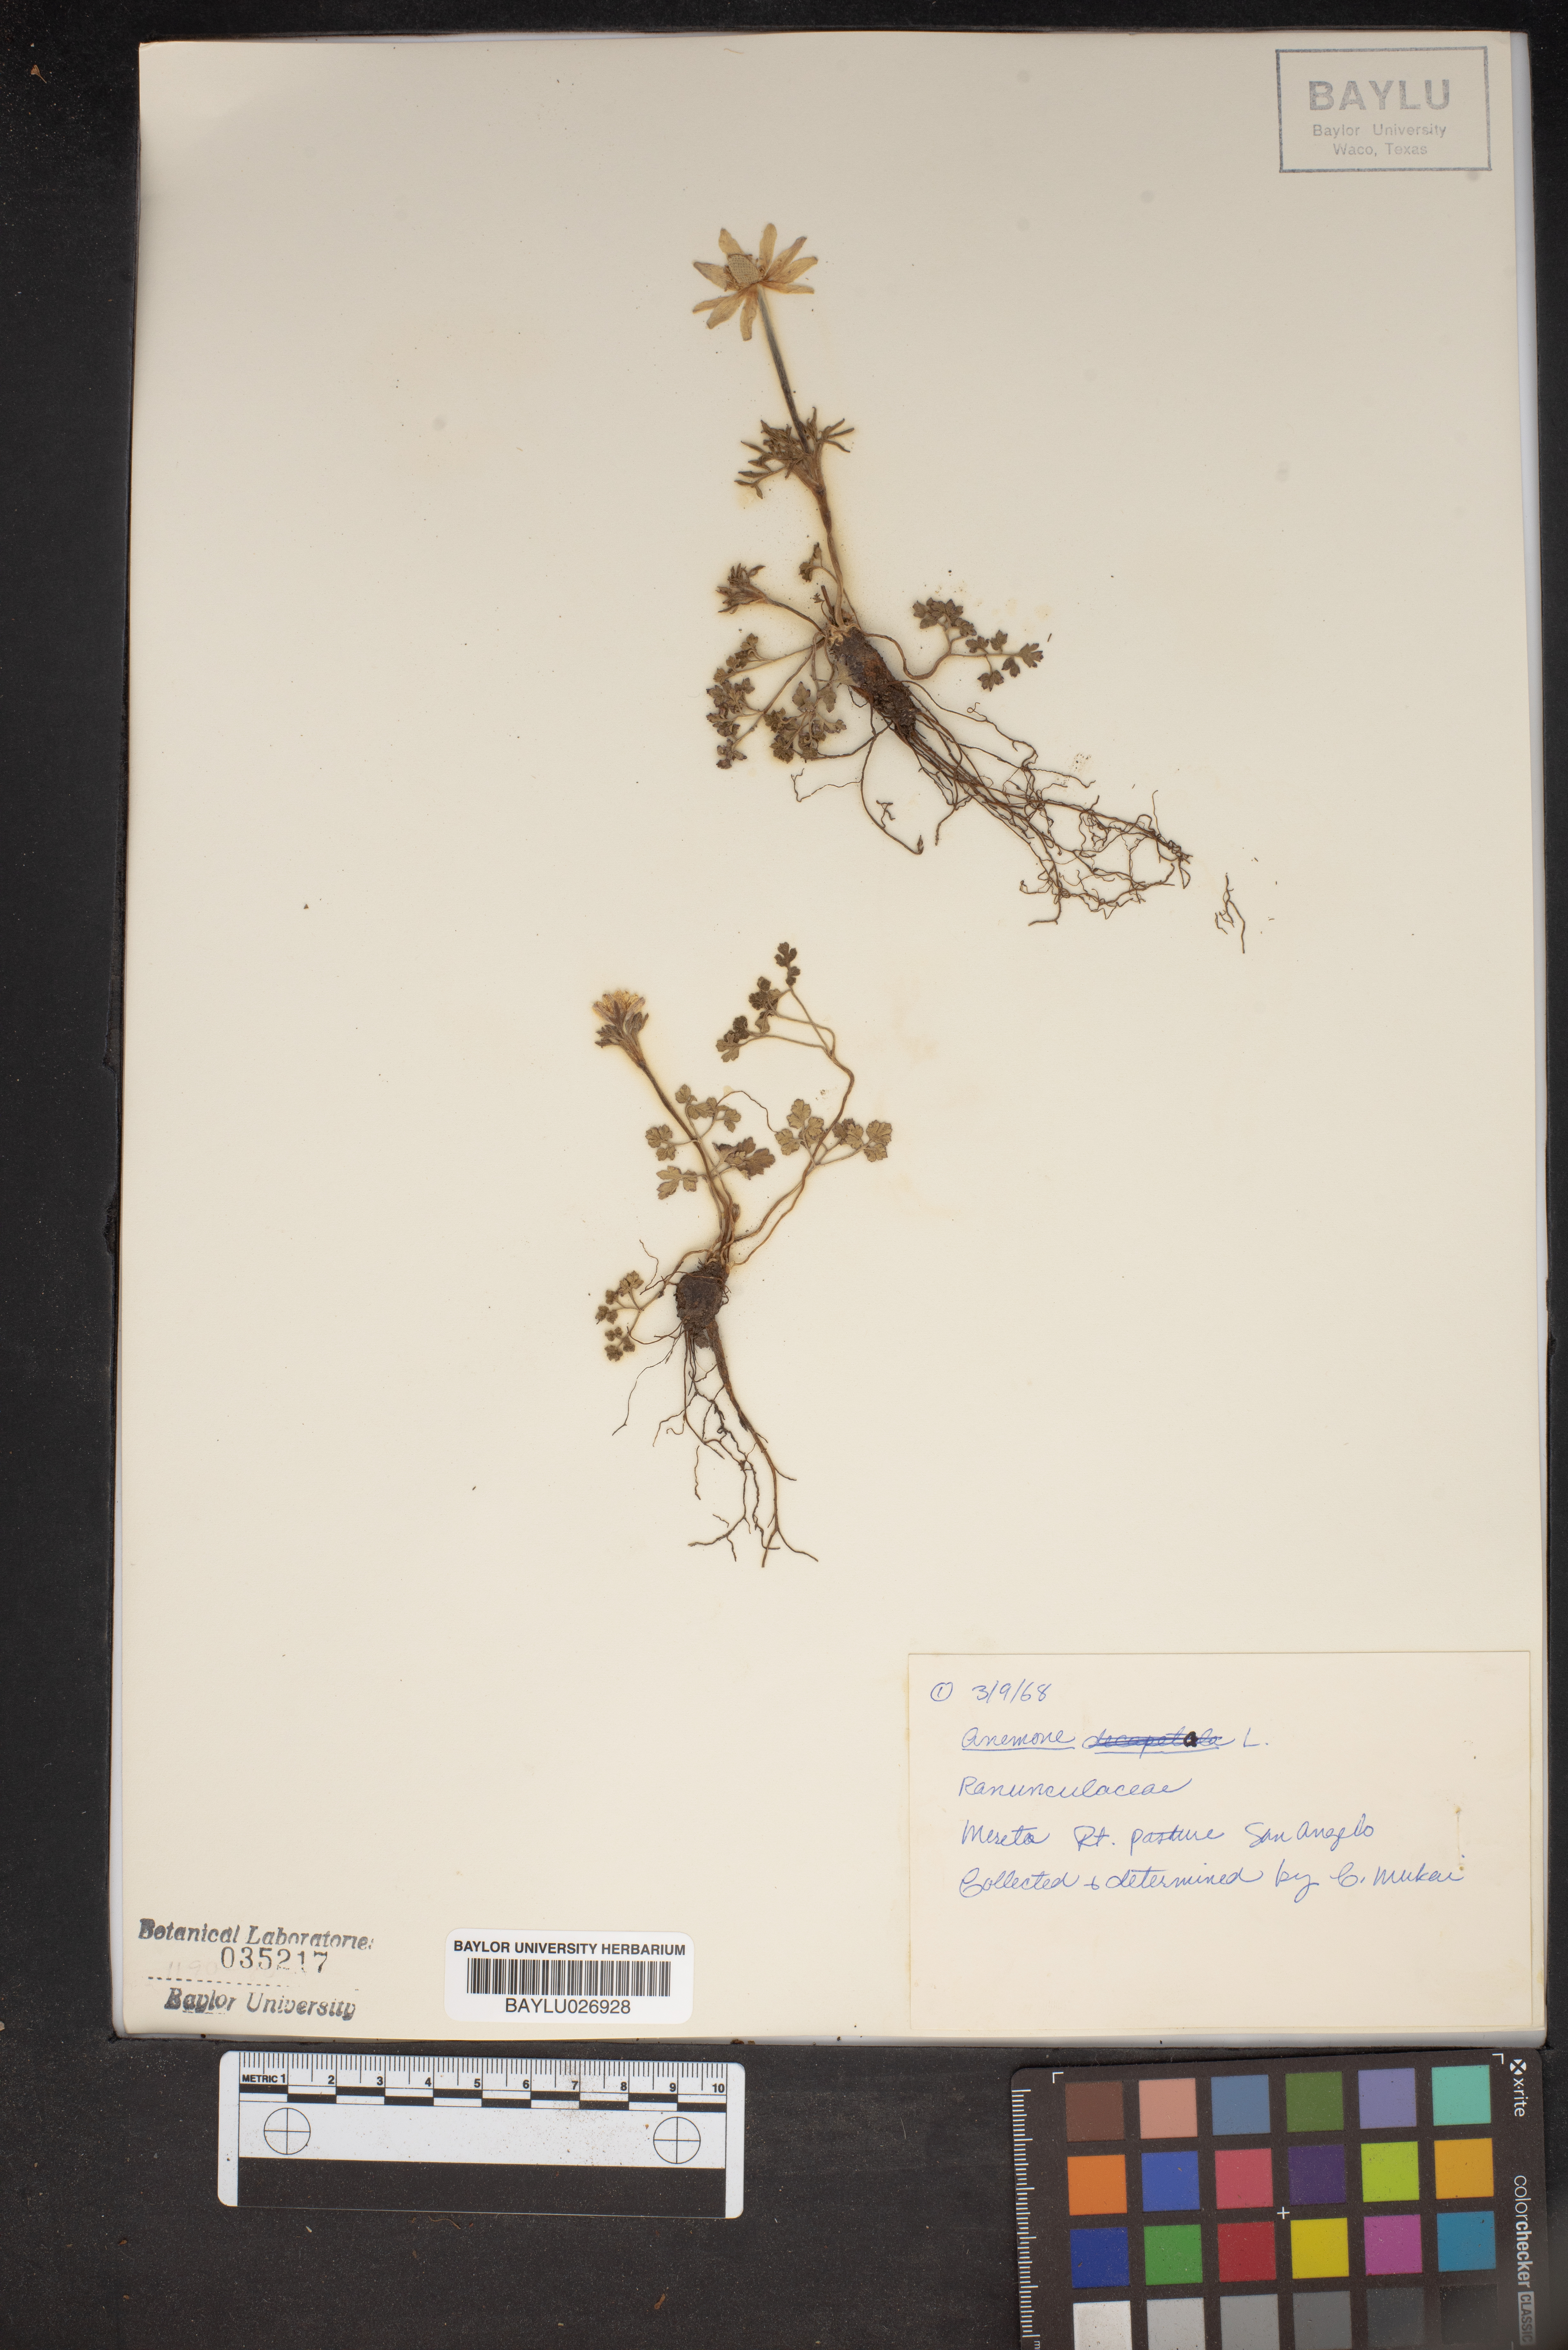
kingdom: Plantae
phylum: Tracheophyta
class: Magnoliopsida
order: Ranunculales
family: Ranunculaceae
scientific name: Ranunculaceae
